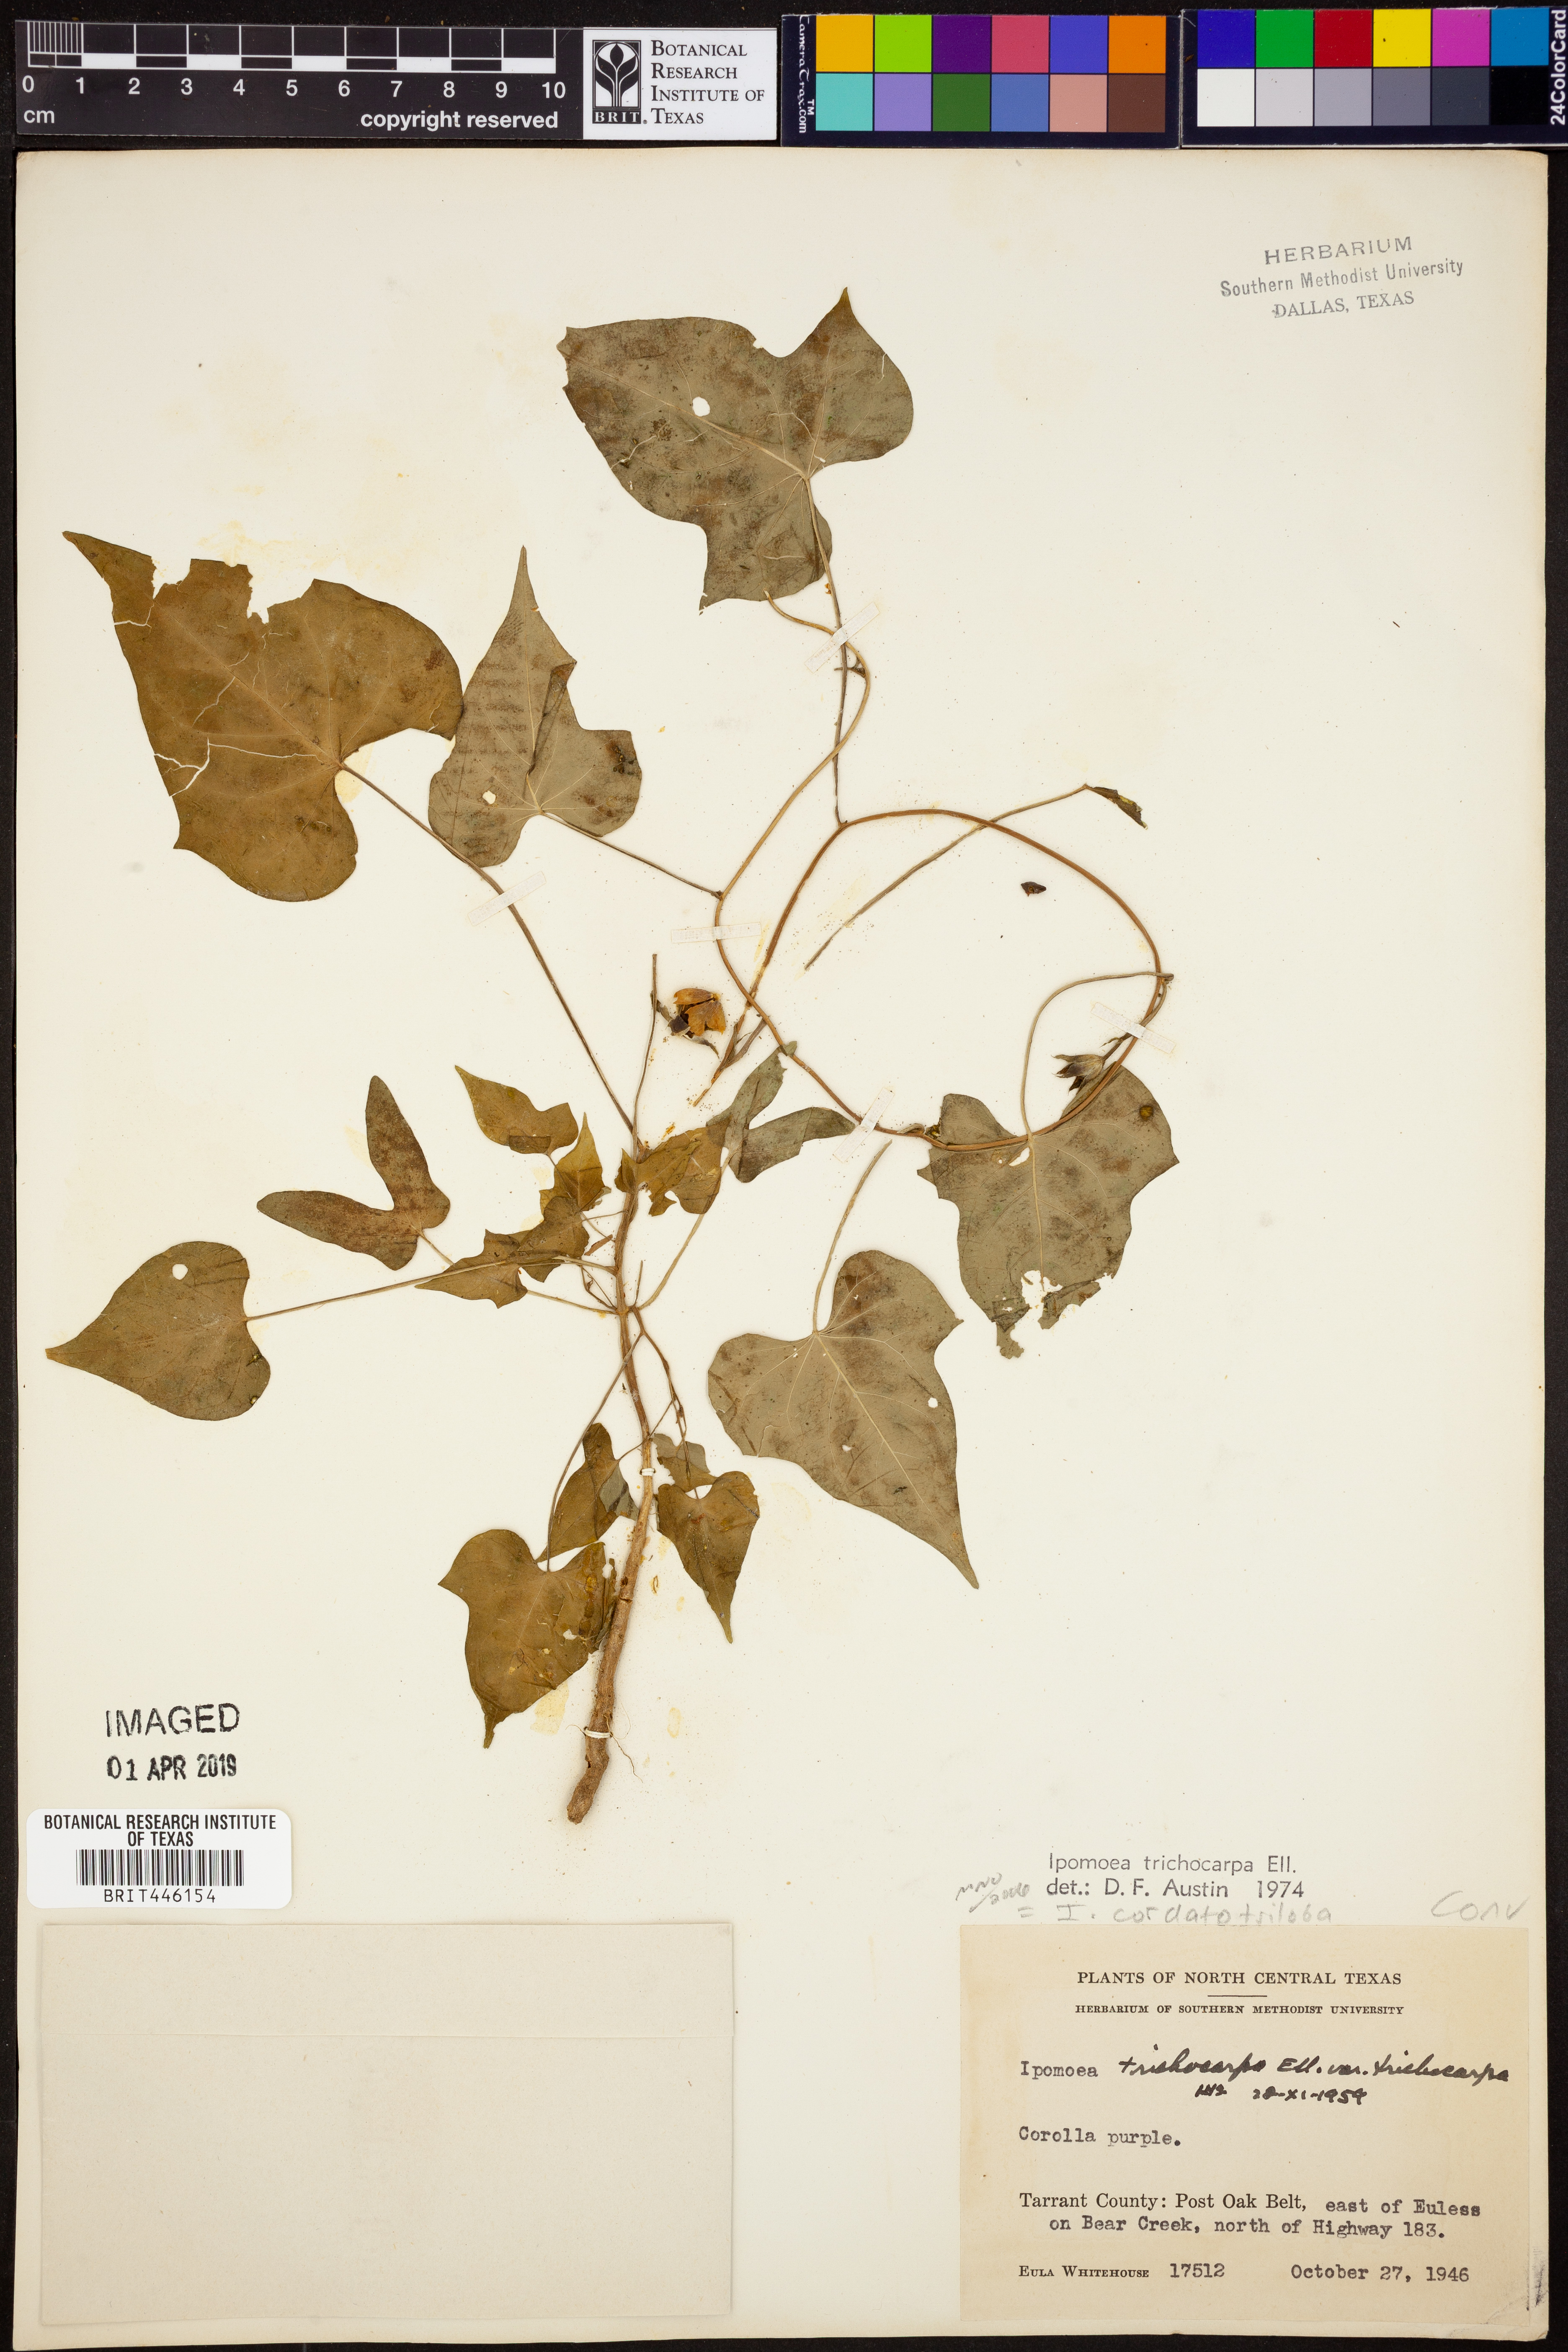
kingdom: Plantae
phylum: Tracheophyta
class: Magnoliopsida
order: Solanales
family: Convolvulaceae
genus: Ipomoea
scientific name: Ipomoea cordatotriloba
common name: Cotton morning glory
